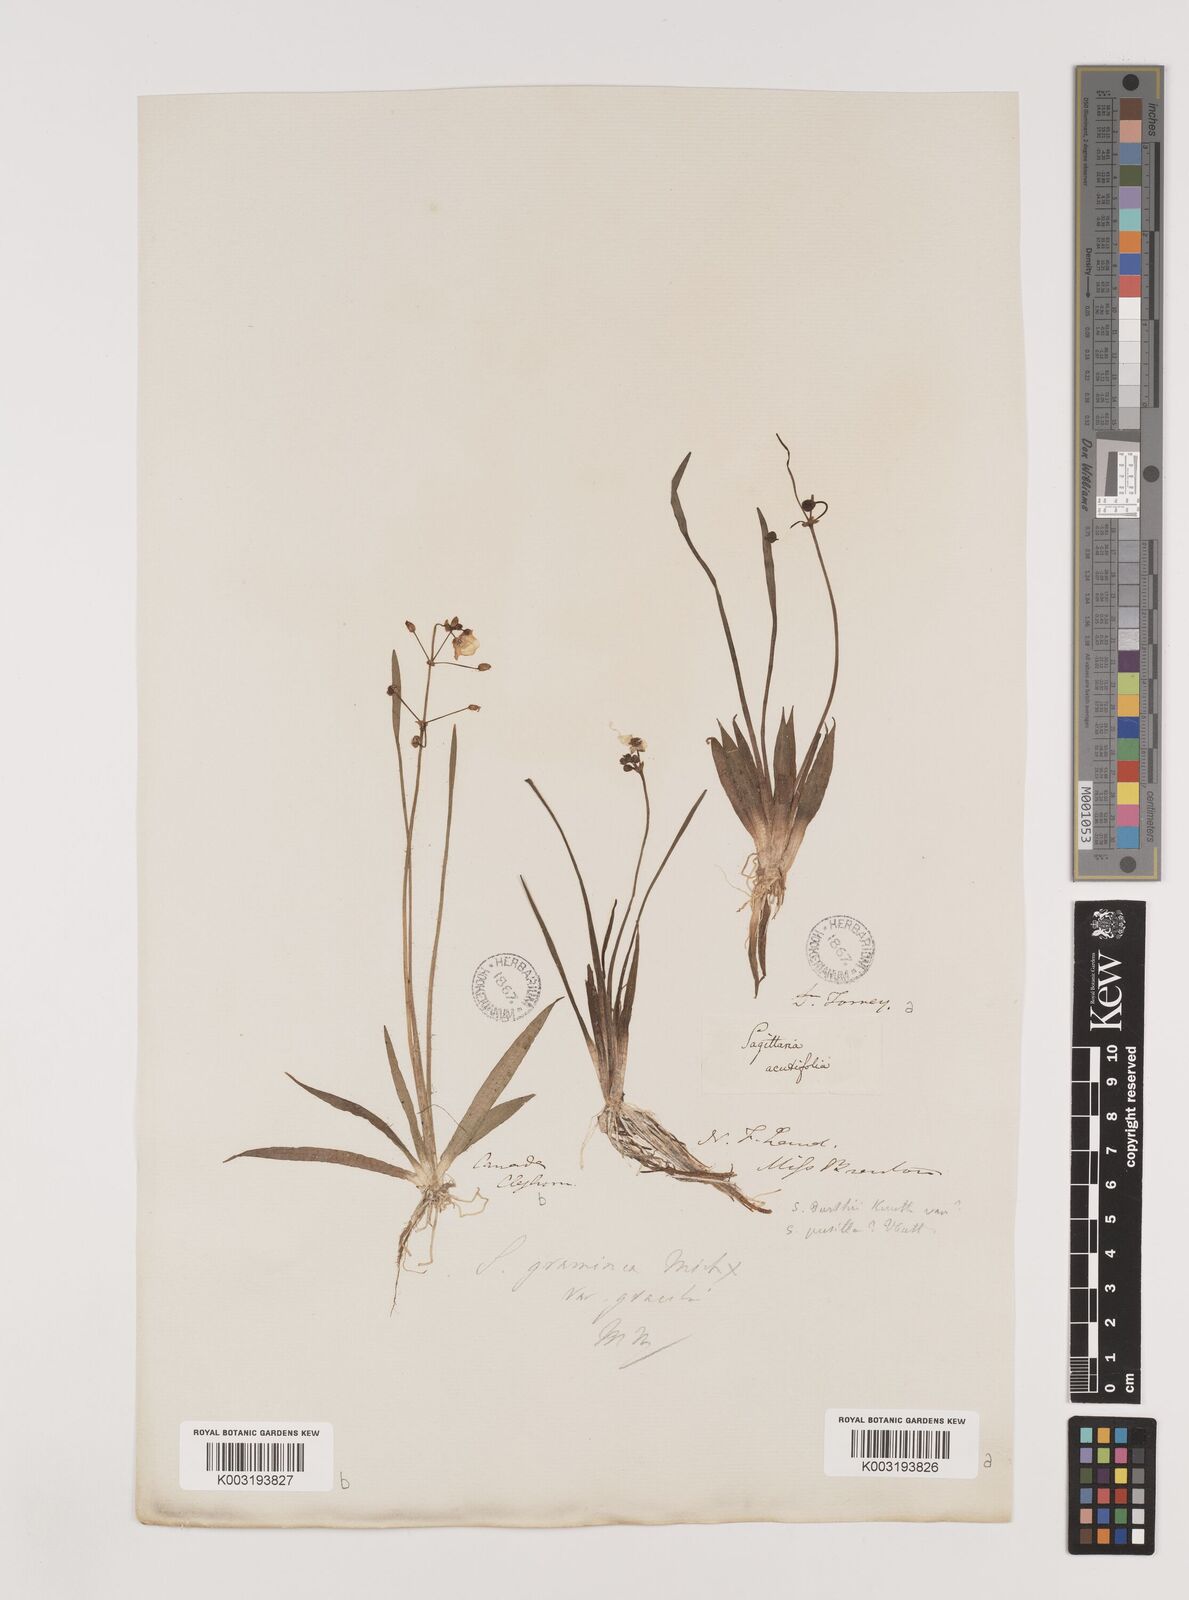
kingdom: Plantae
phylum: Tracheophyta
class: Liliopsida
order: Alismatales
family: Alismataceae
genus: Sagittaria
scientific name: Sagittaria graminea
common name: Grass-leaved arrowhead
